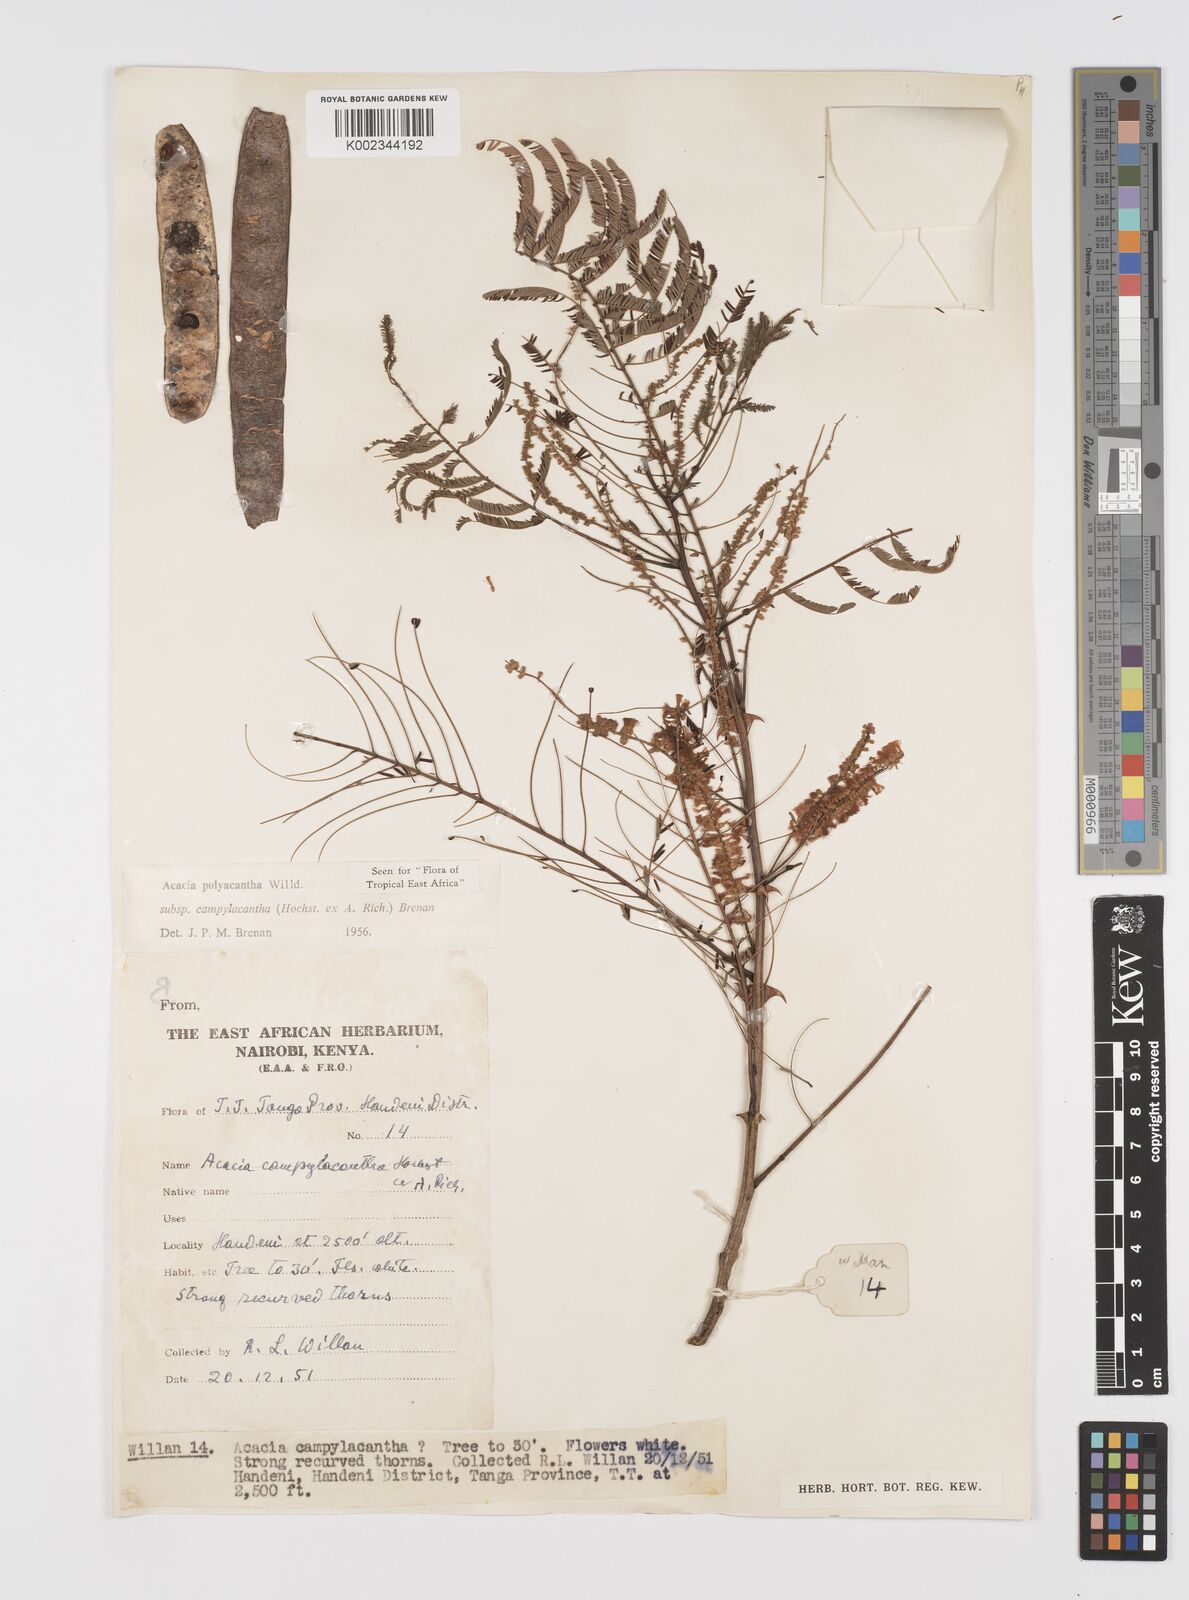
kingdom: Plantae
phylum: Tracheophyta
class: Magnoliopsida
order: Fabales
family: Fabaceae
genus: Senegalia
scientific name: Senegalia polyacantha
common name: Whitethorn
